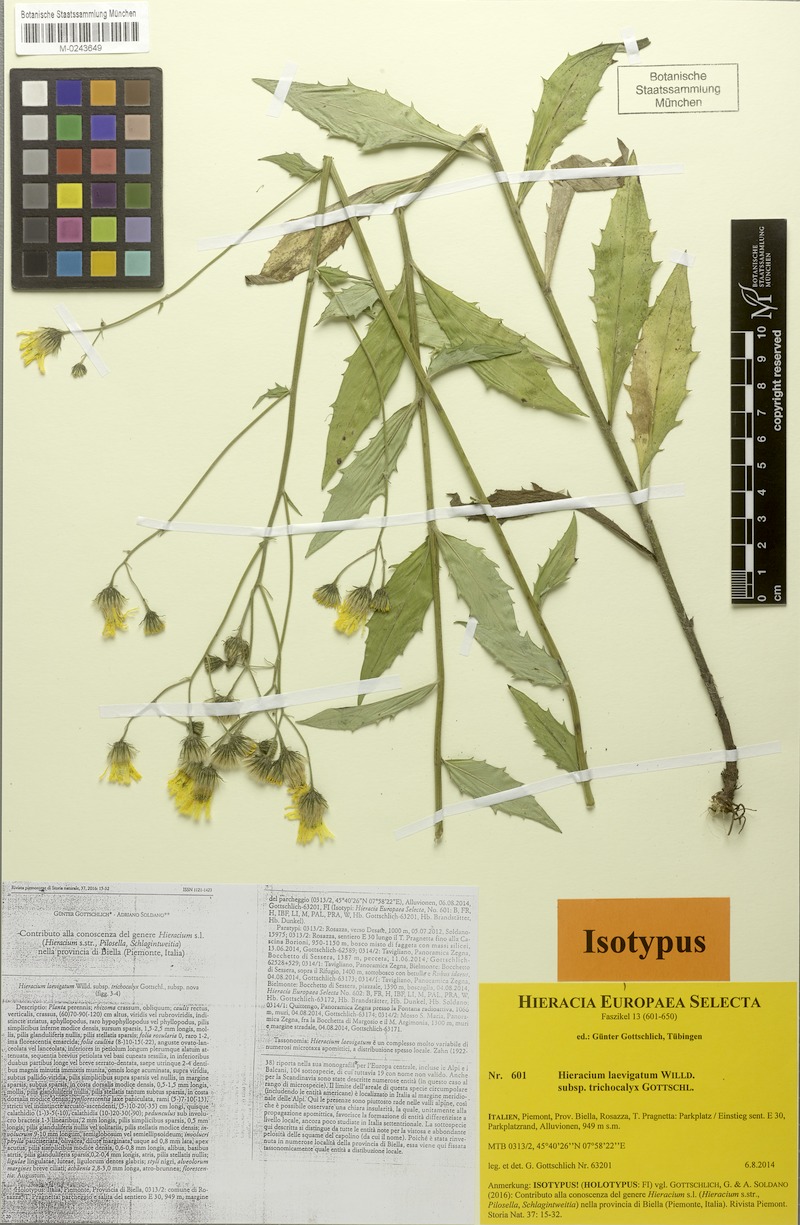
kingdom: Plantae
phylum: Tracheophyta
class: Magnoliopsida
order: Asterales
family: Asteraceae
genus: Hieracium
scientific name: Hieracium laevigatum
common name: Smooth hawkweed
